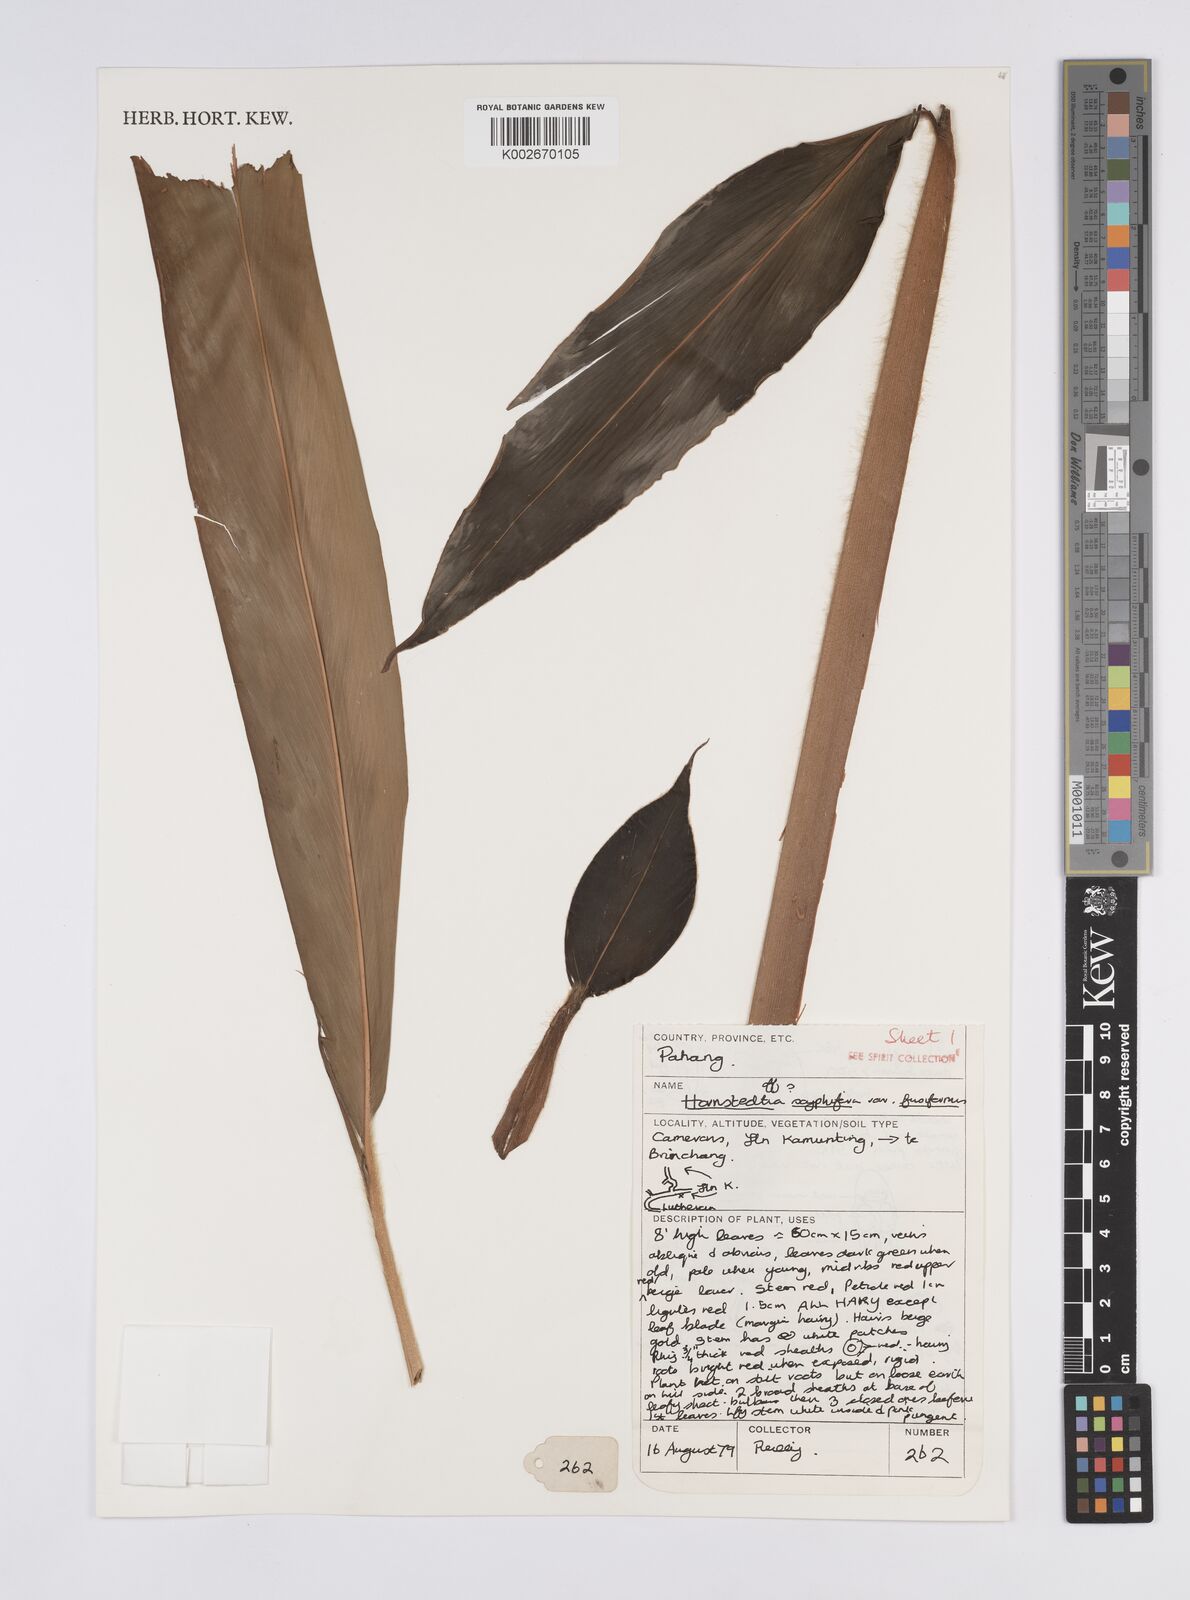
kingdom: Plantae
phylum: Tracheophyta
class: Liliopsida
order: Zingiberales
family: Zingiberaceae
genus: Hornstedtia
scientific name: Hornstedtia scyphifera
